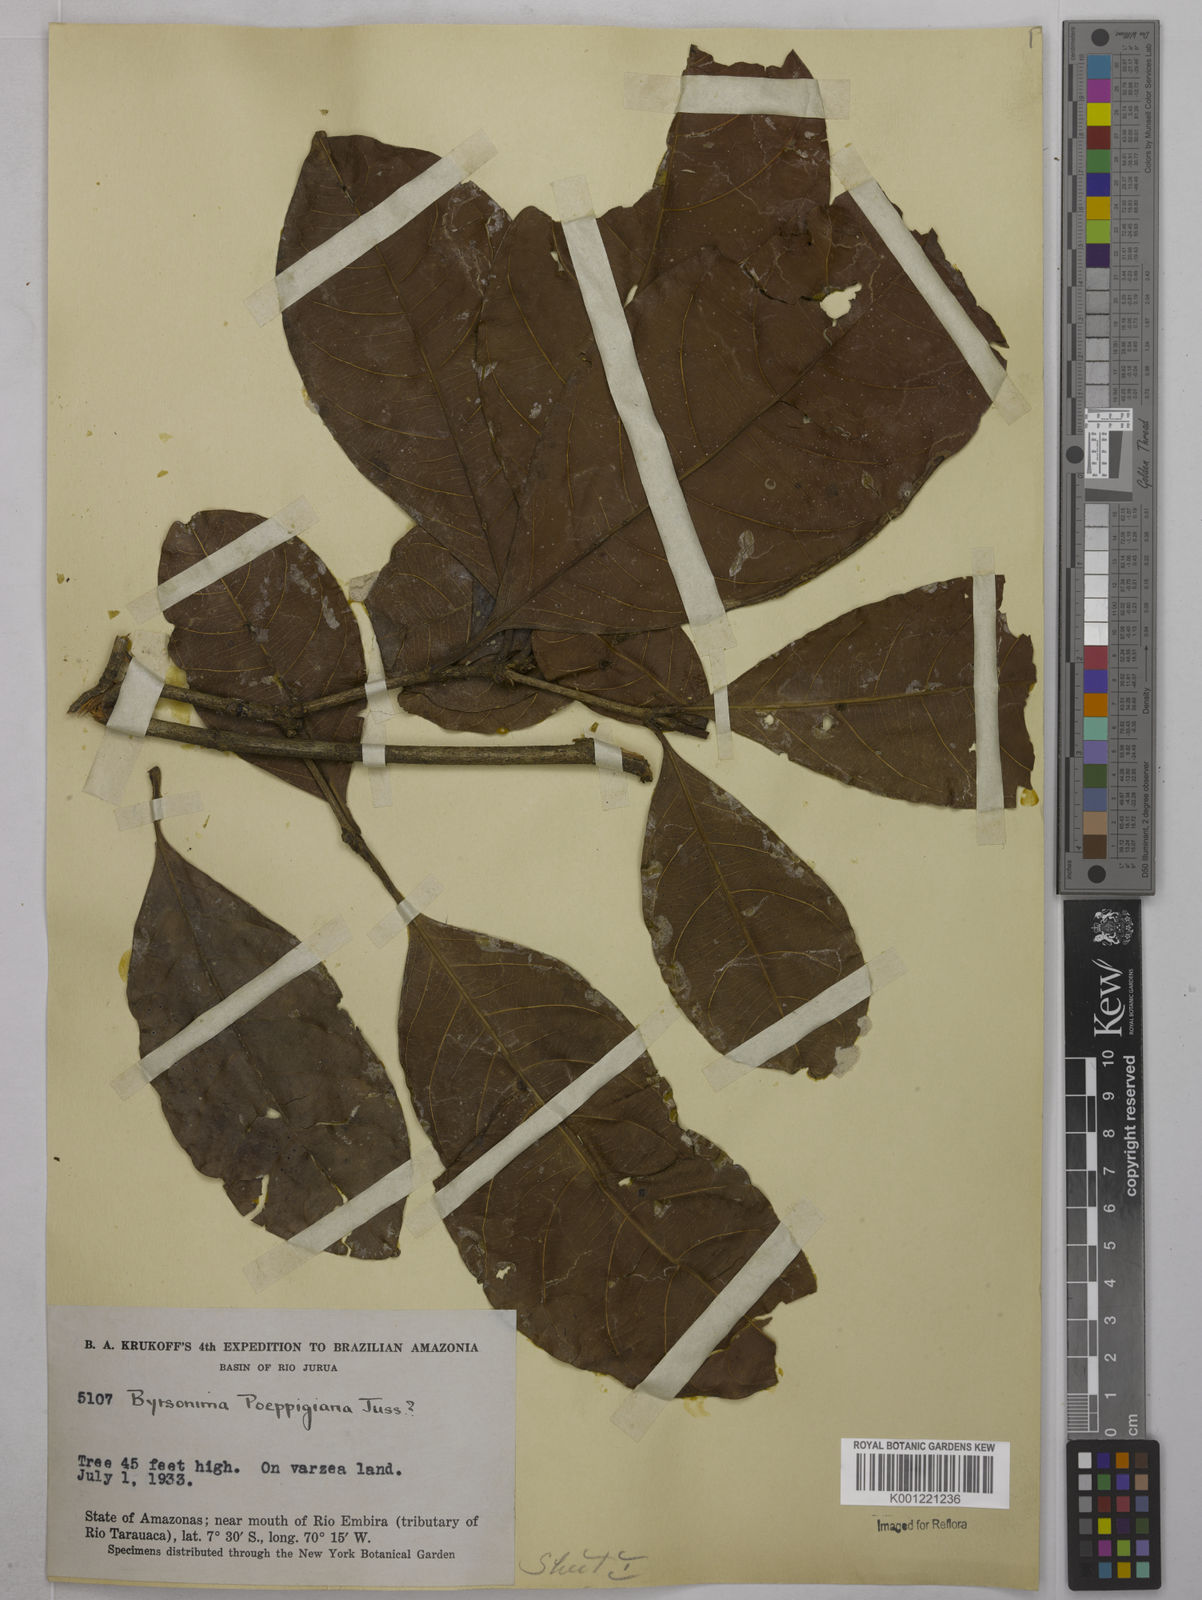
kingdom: Plantae
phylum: Tracheophyta
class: Magnoliopsida
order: Malpighiales
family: Malpighiaceae
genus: Byrsonima
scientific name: Byrsonima poeppigiana
